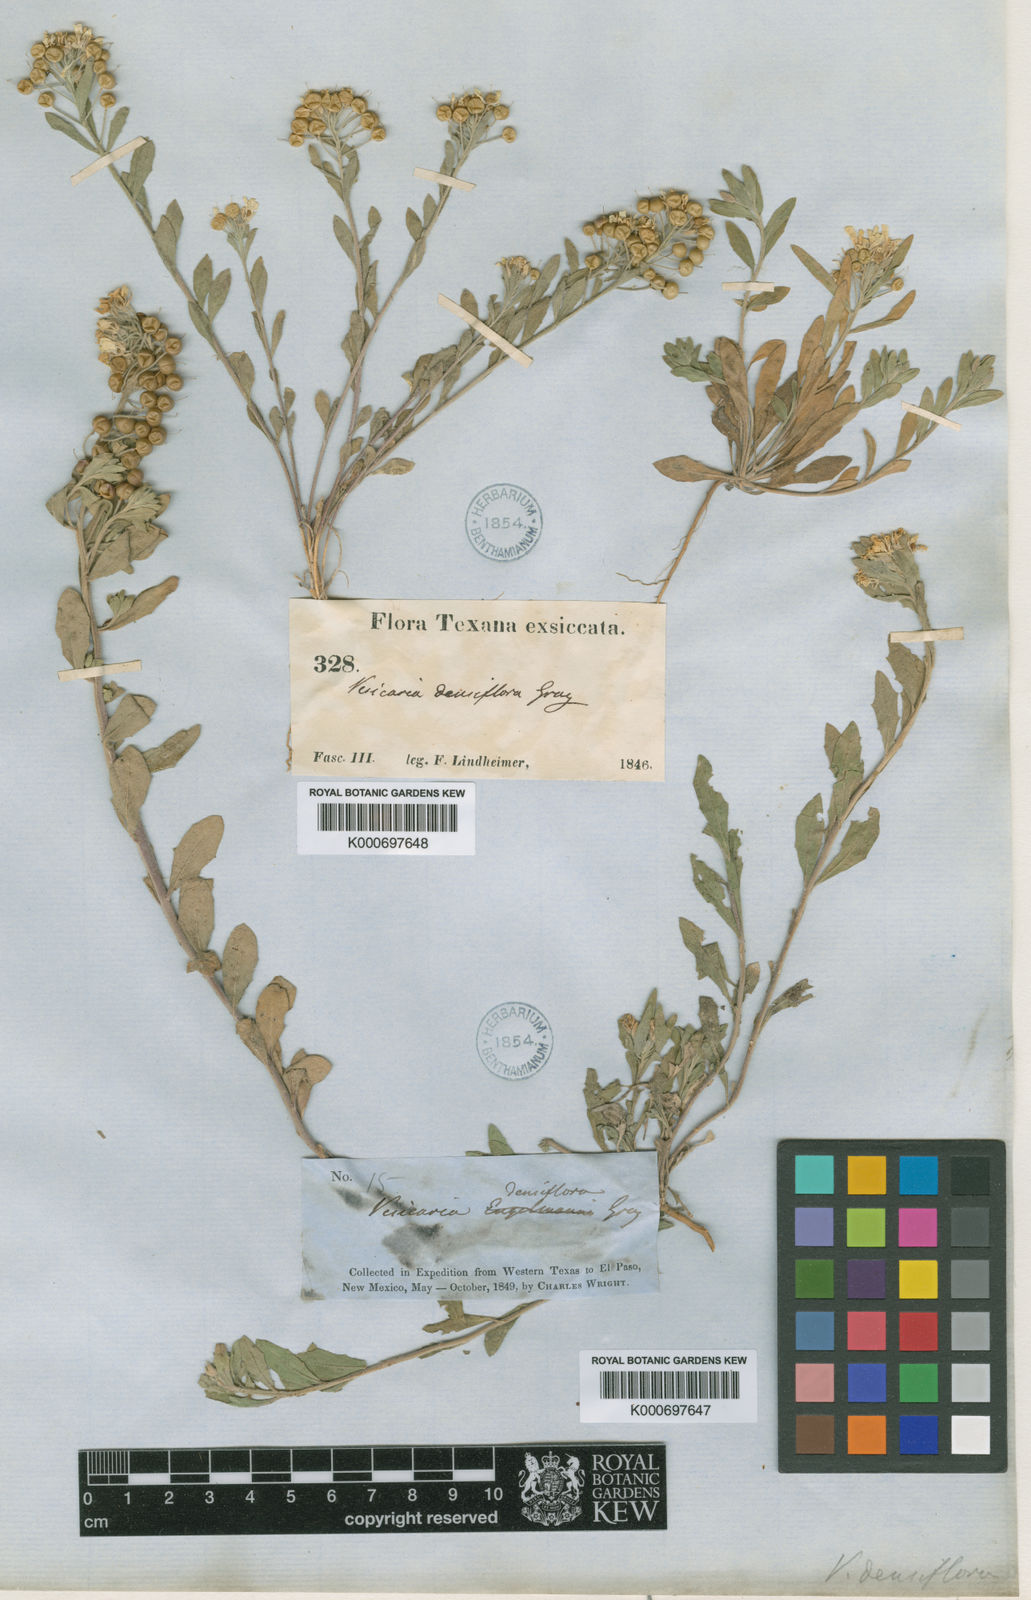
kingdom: Plantae
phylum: Tracheophyta
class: Magnoliopsida
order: Brassicales
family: Brassicaceae
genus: Physaria
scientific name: Physaria densiflora
